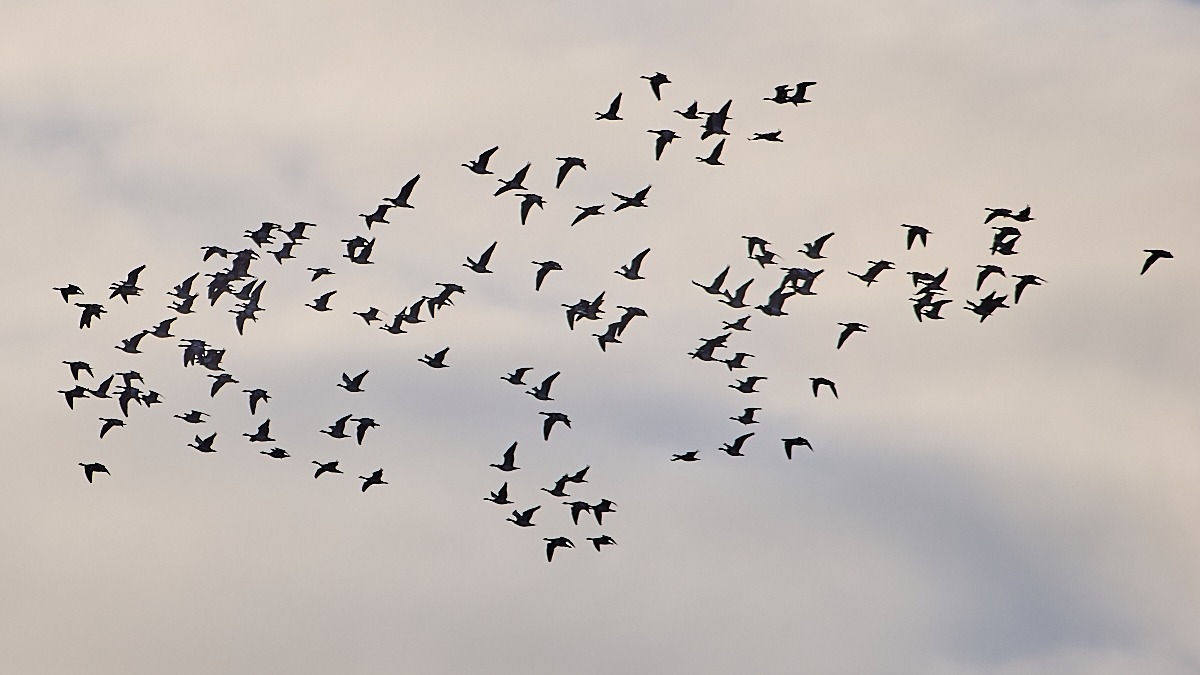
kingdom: Animalia
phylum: Chordata
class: Aves
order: Anseriformes
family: Anatidae
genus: Branta
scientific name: Branta leucopsis
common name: Bramgås
